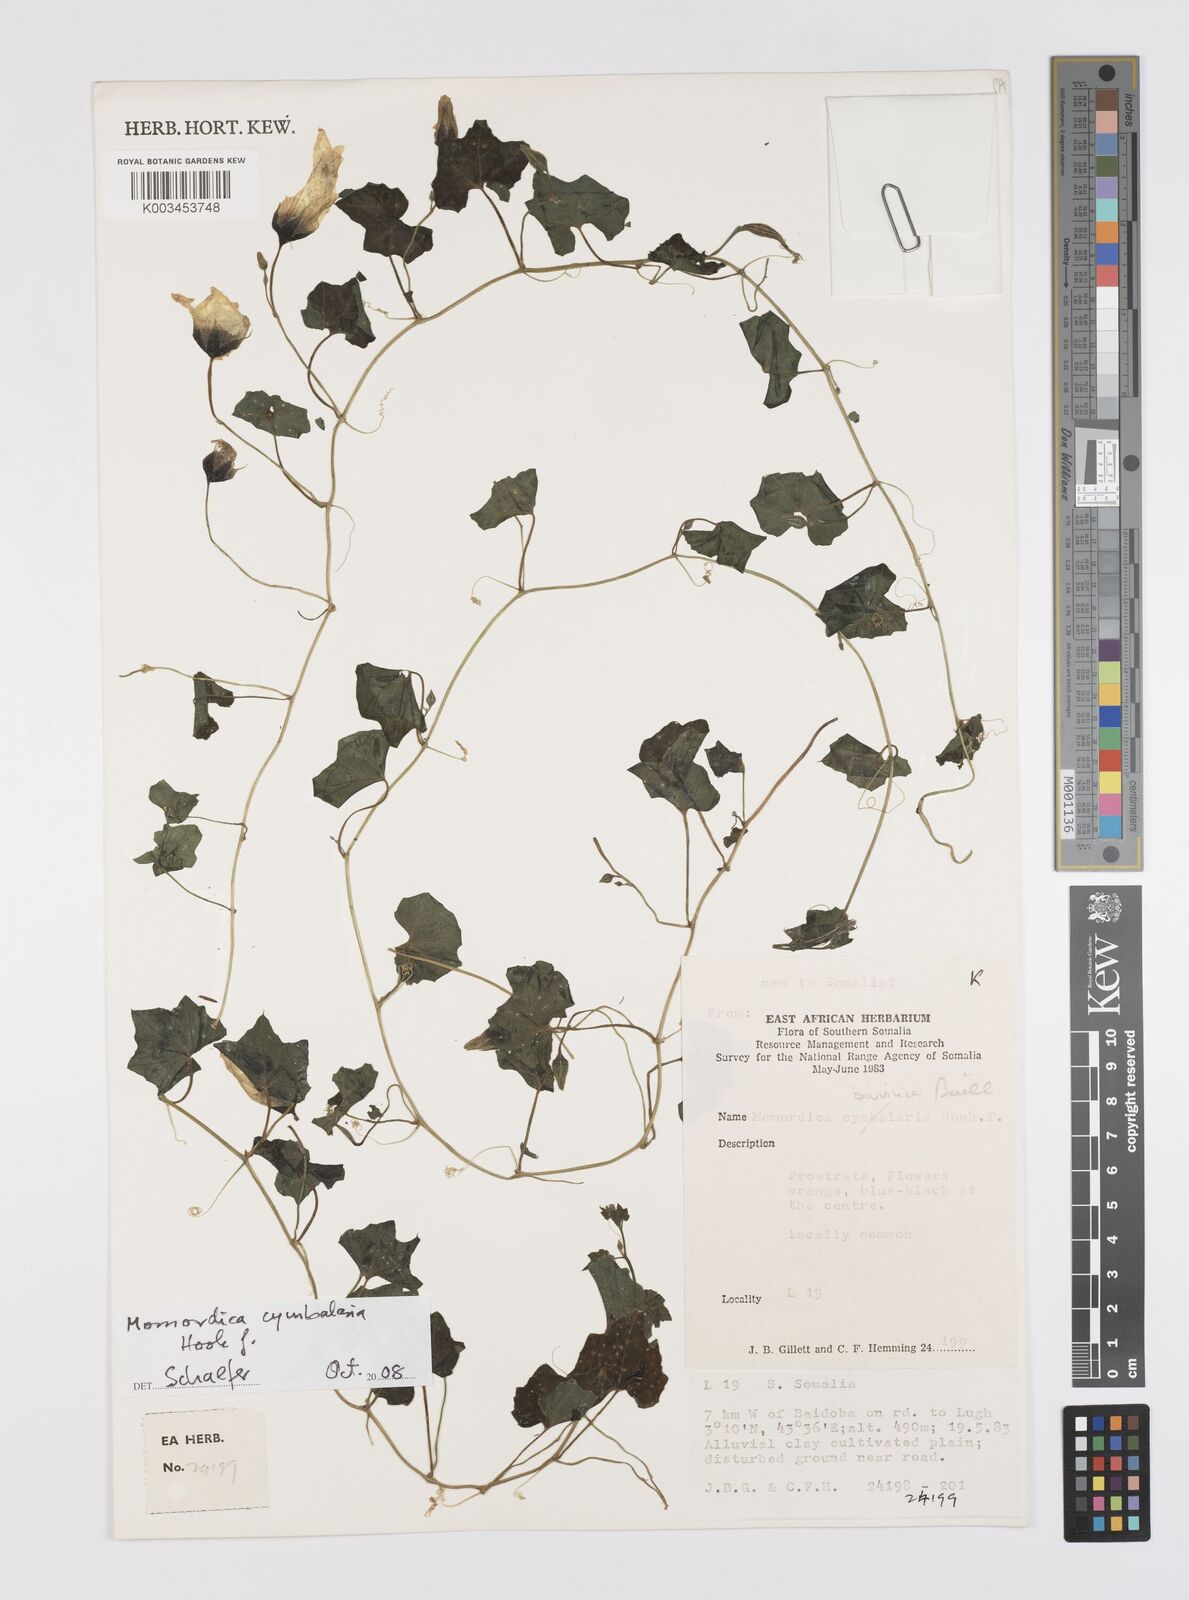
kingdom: Plantae
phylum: Tracheophyta
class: Magnoliopsida
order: Cucurbitales
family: Cucurbitaceae
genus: Momordica
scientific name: Momordica boivinii
